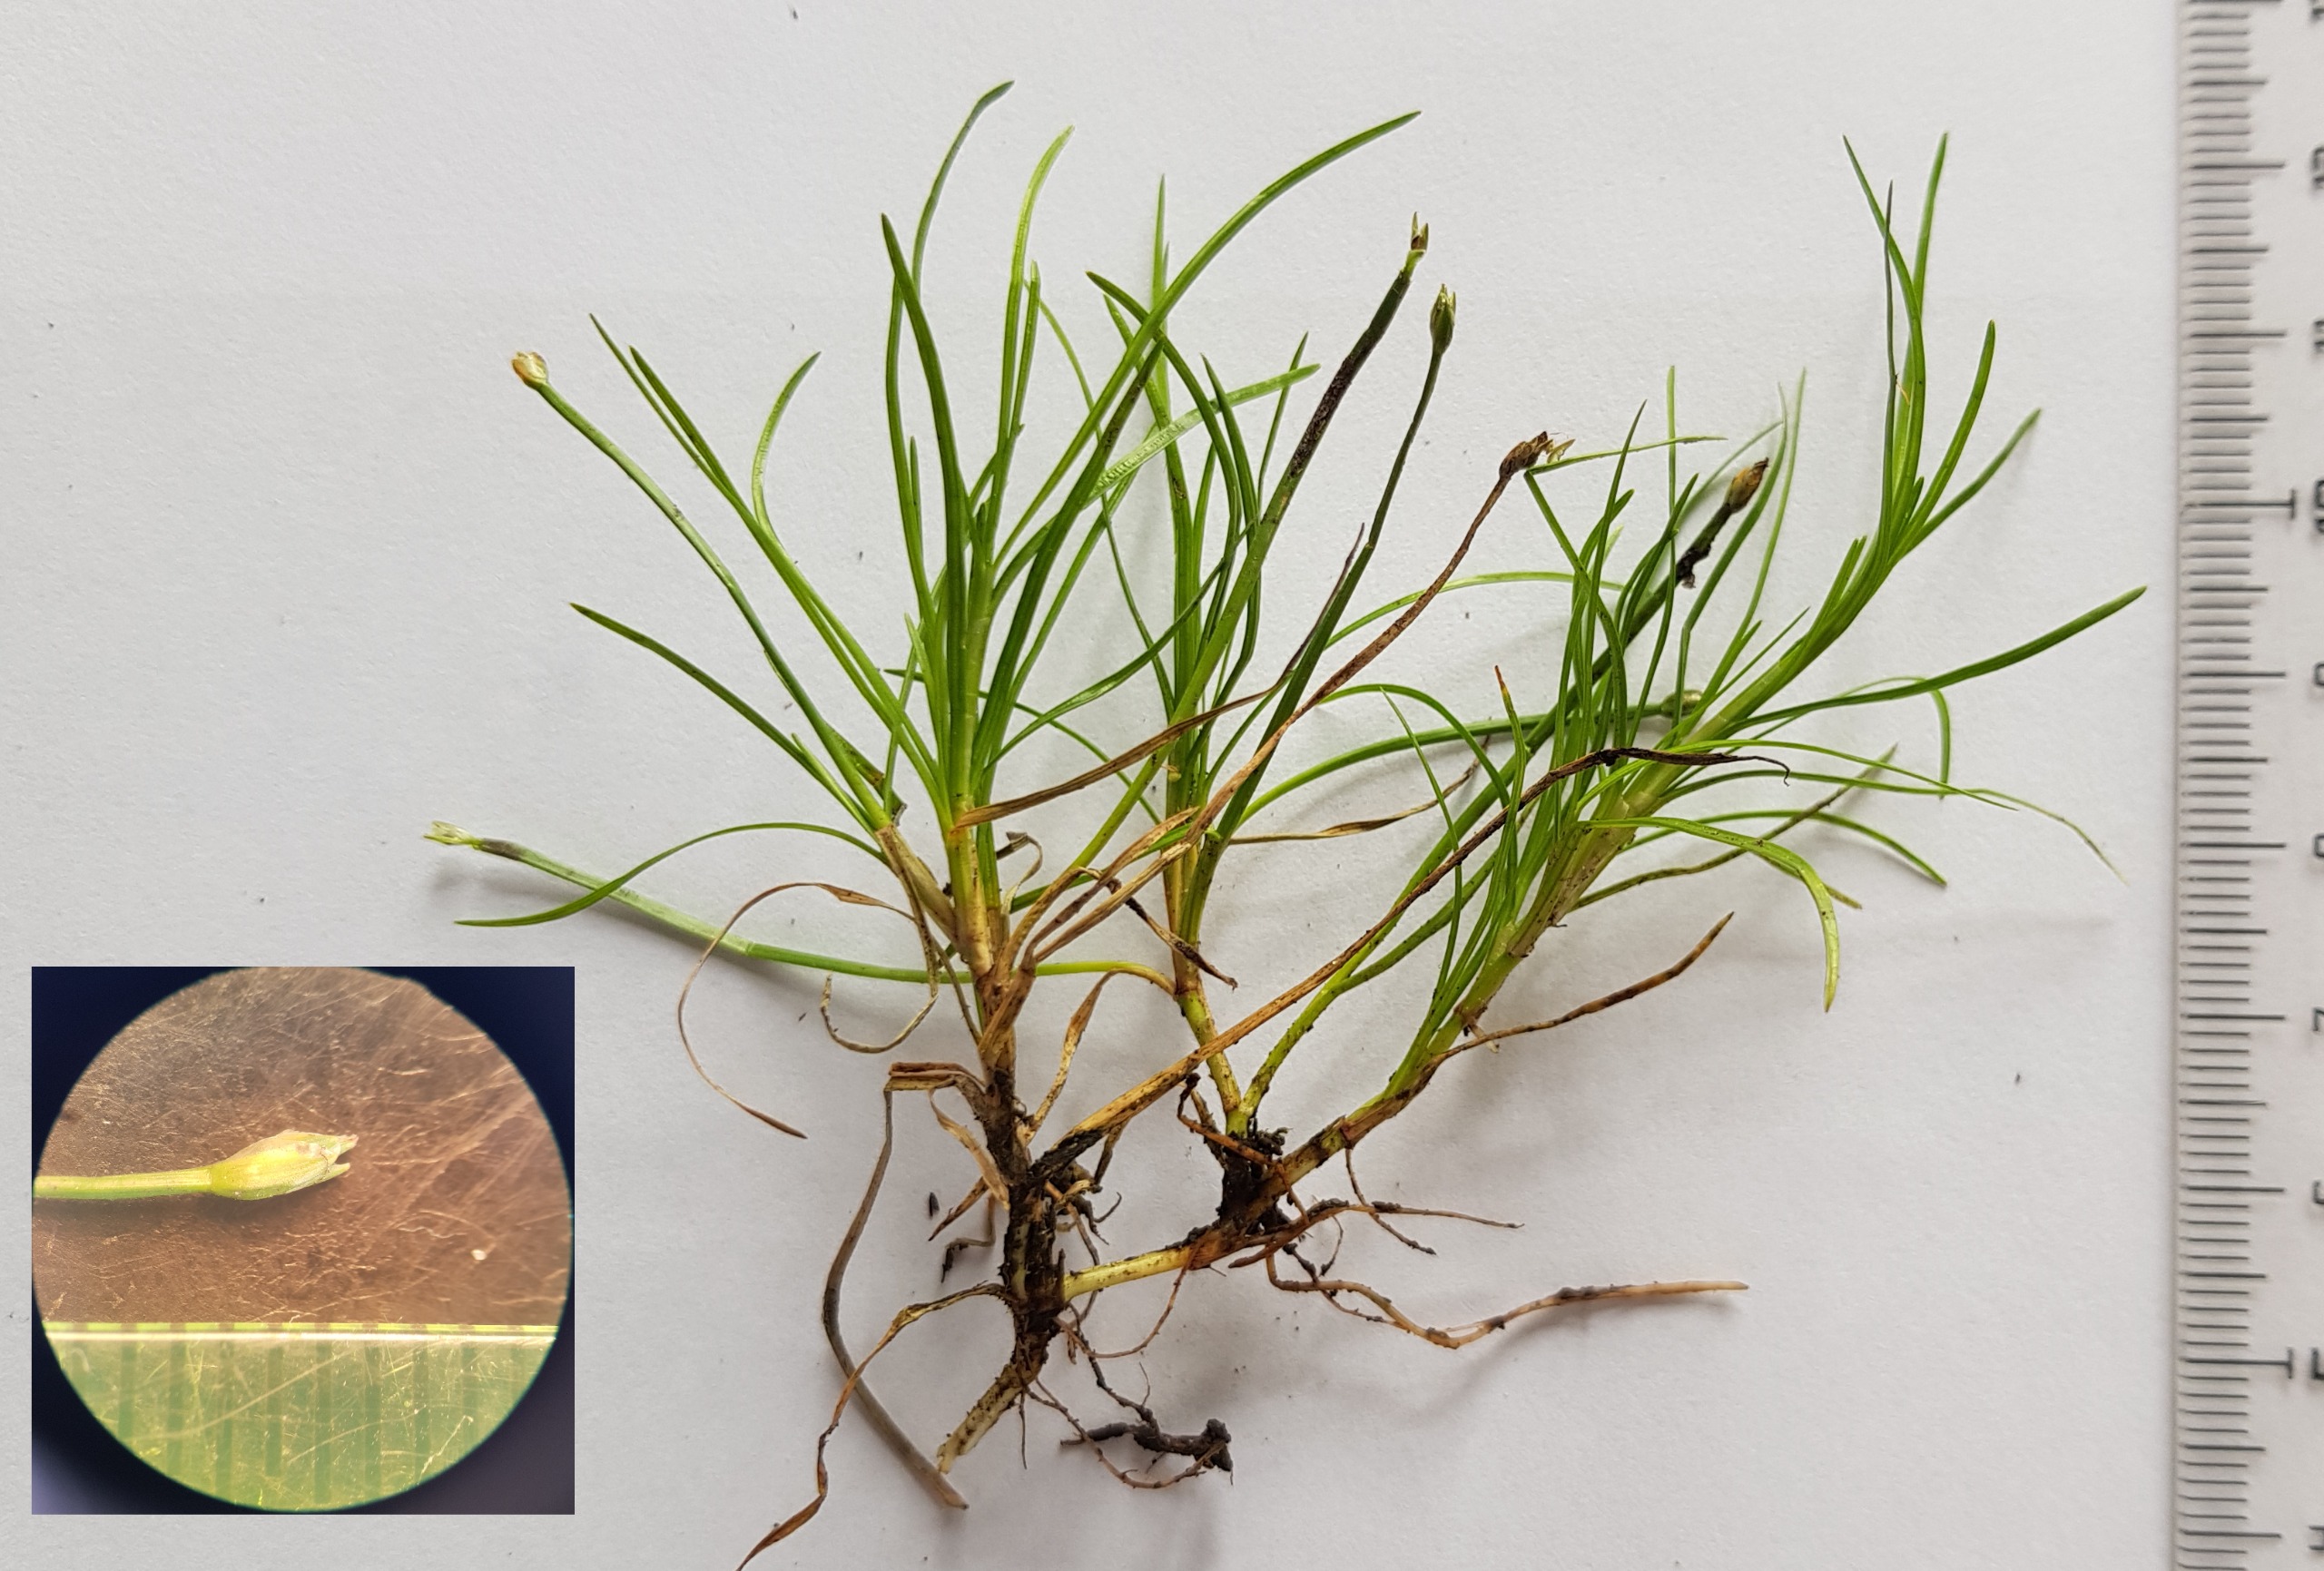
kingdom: Plantae
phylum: Tracheophyta
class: Liliopsida
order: Poales
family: Cyperaceae
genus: Isolepis
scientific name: Isolepis fluitans
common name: Flydende kogleaks
